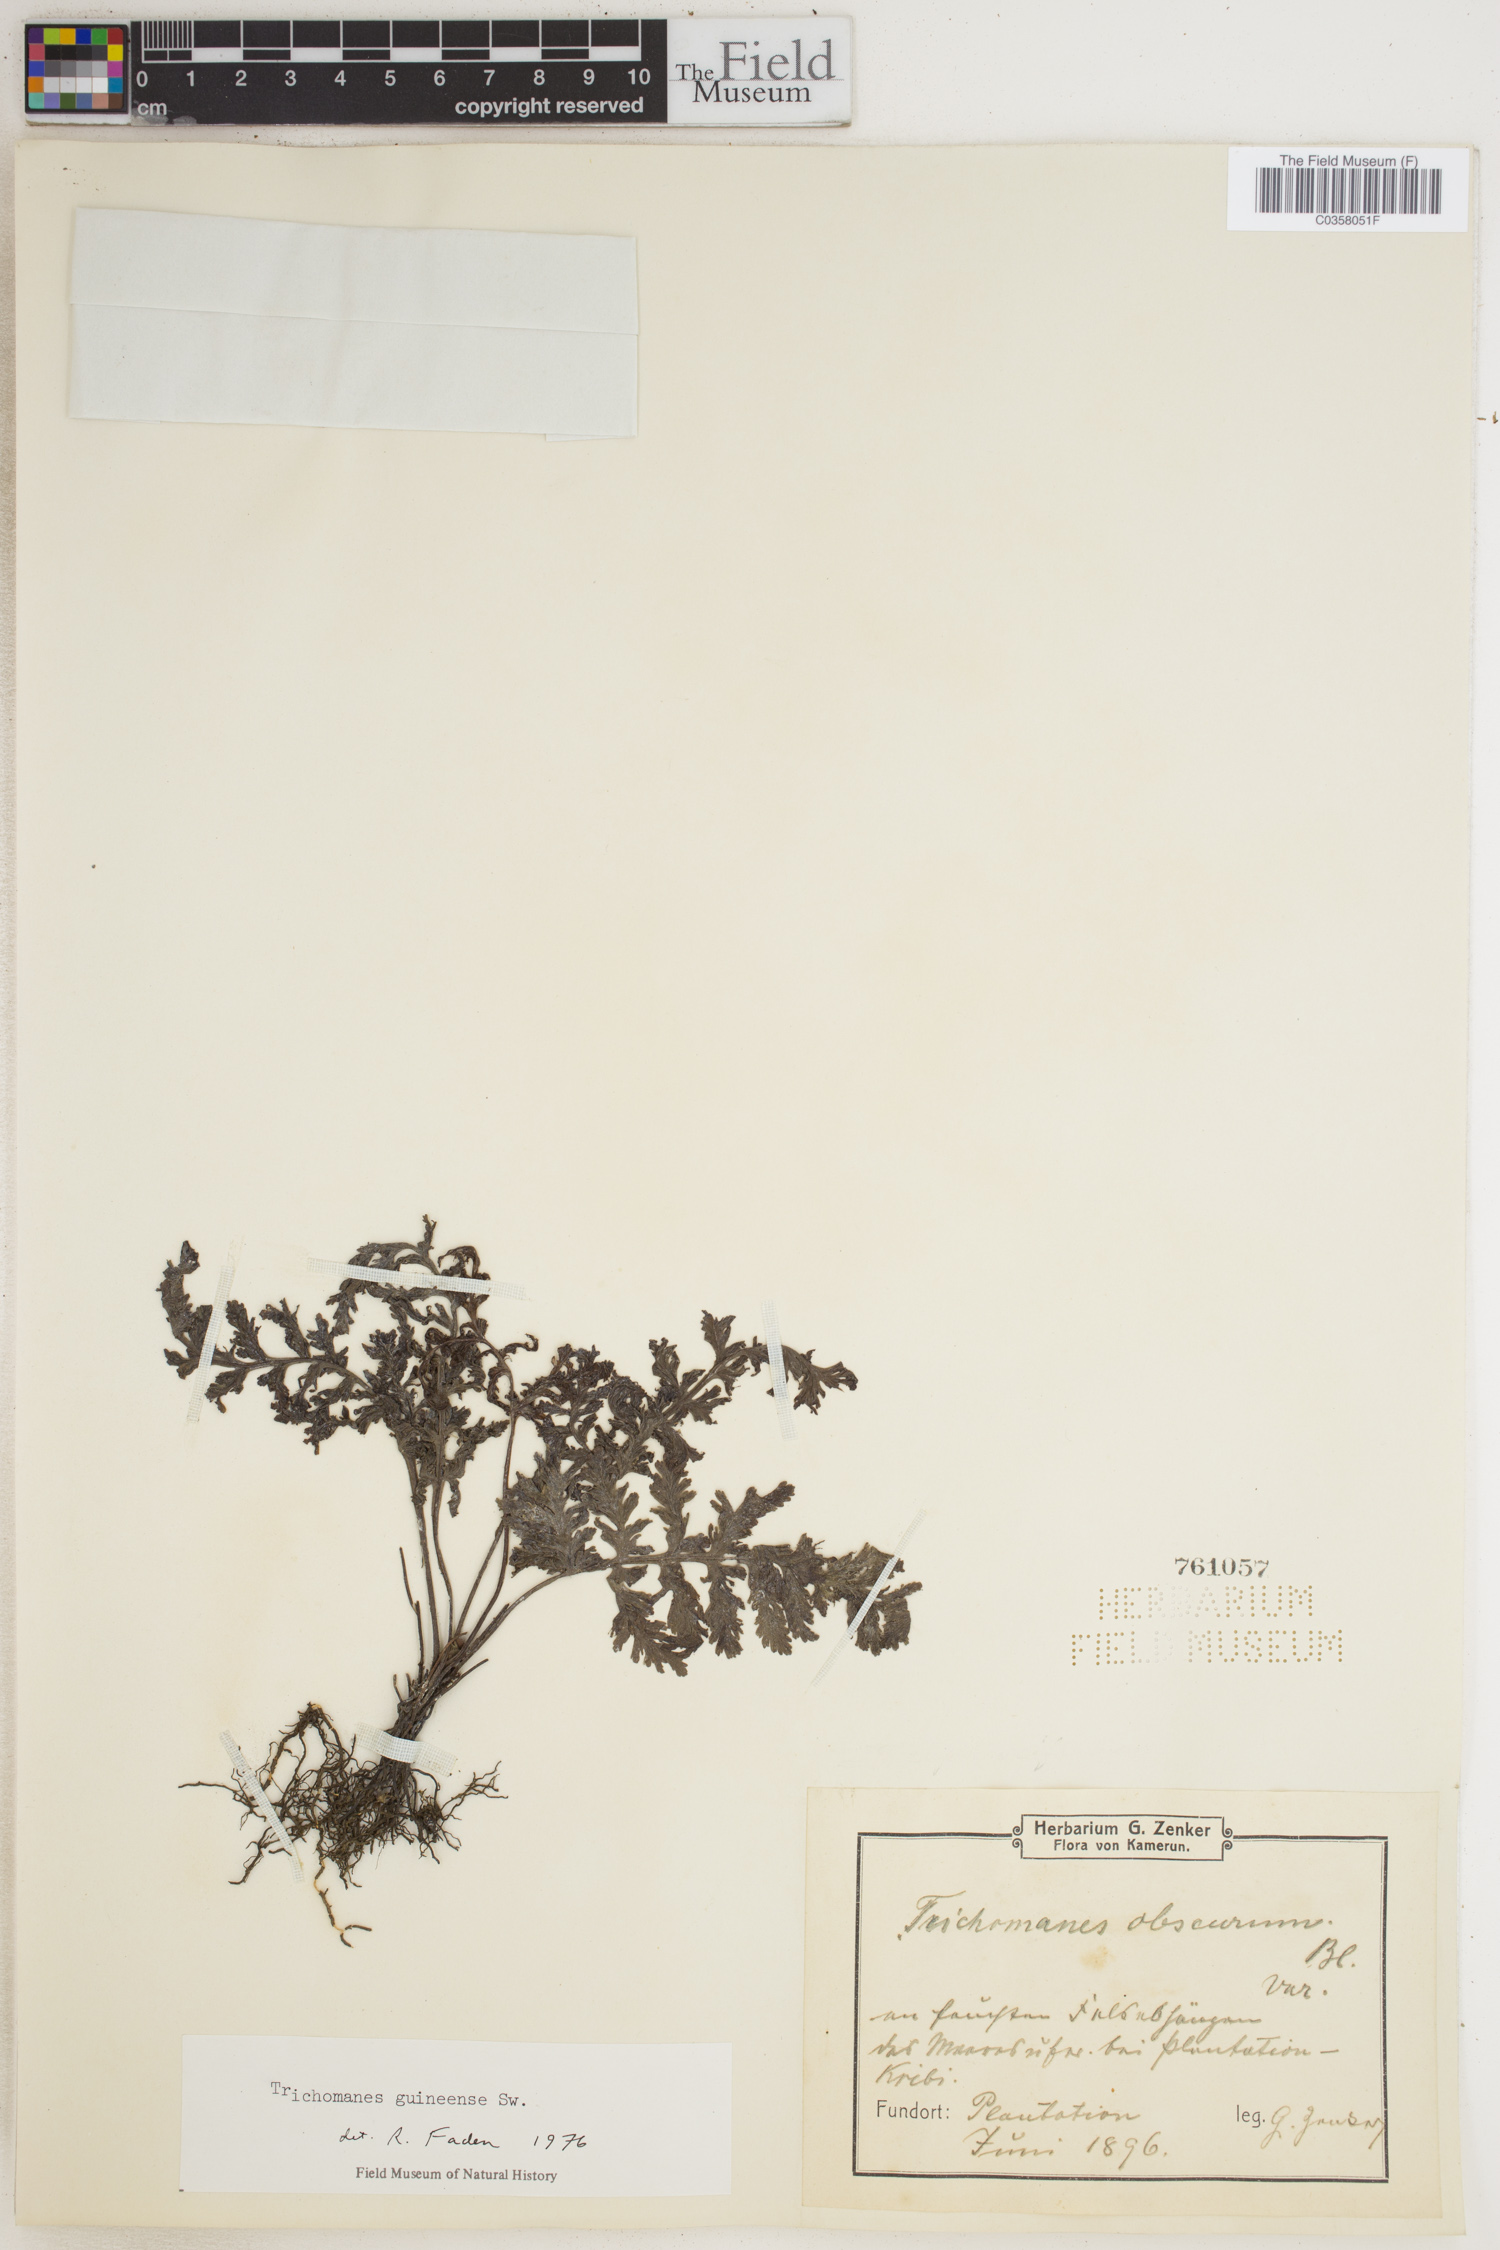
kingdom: Plantae
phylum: Tracheophyta
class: Polypodiopsida
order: Hymenophyllales
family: Hymenophyllaceae
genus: Abrodictyum
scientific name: Abrodictyum guineense
